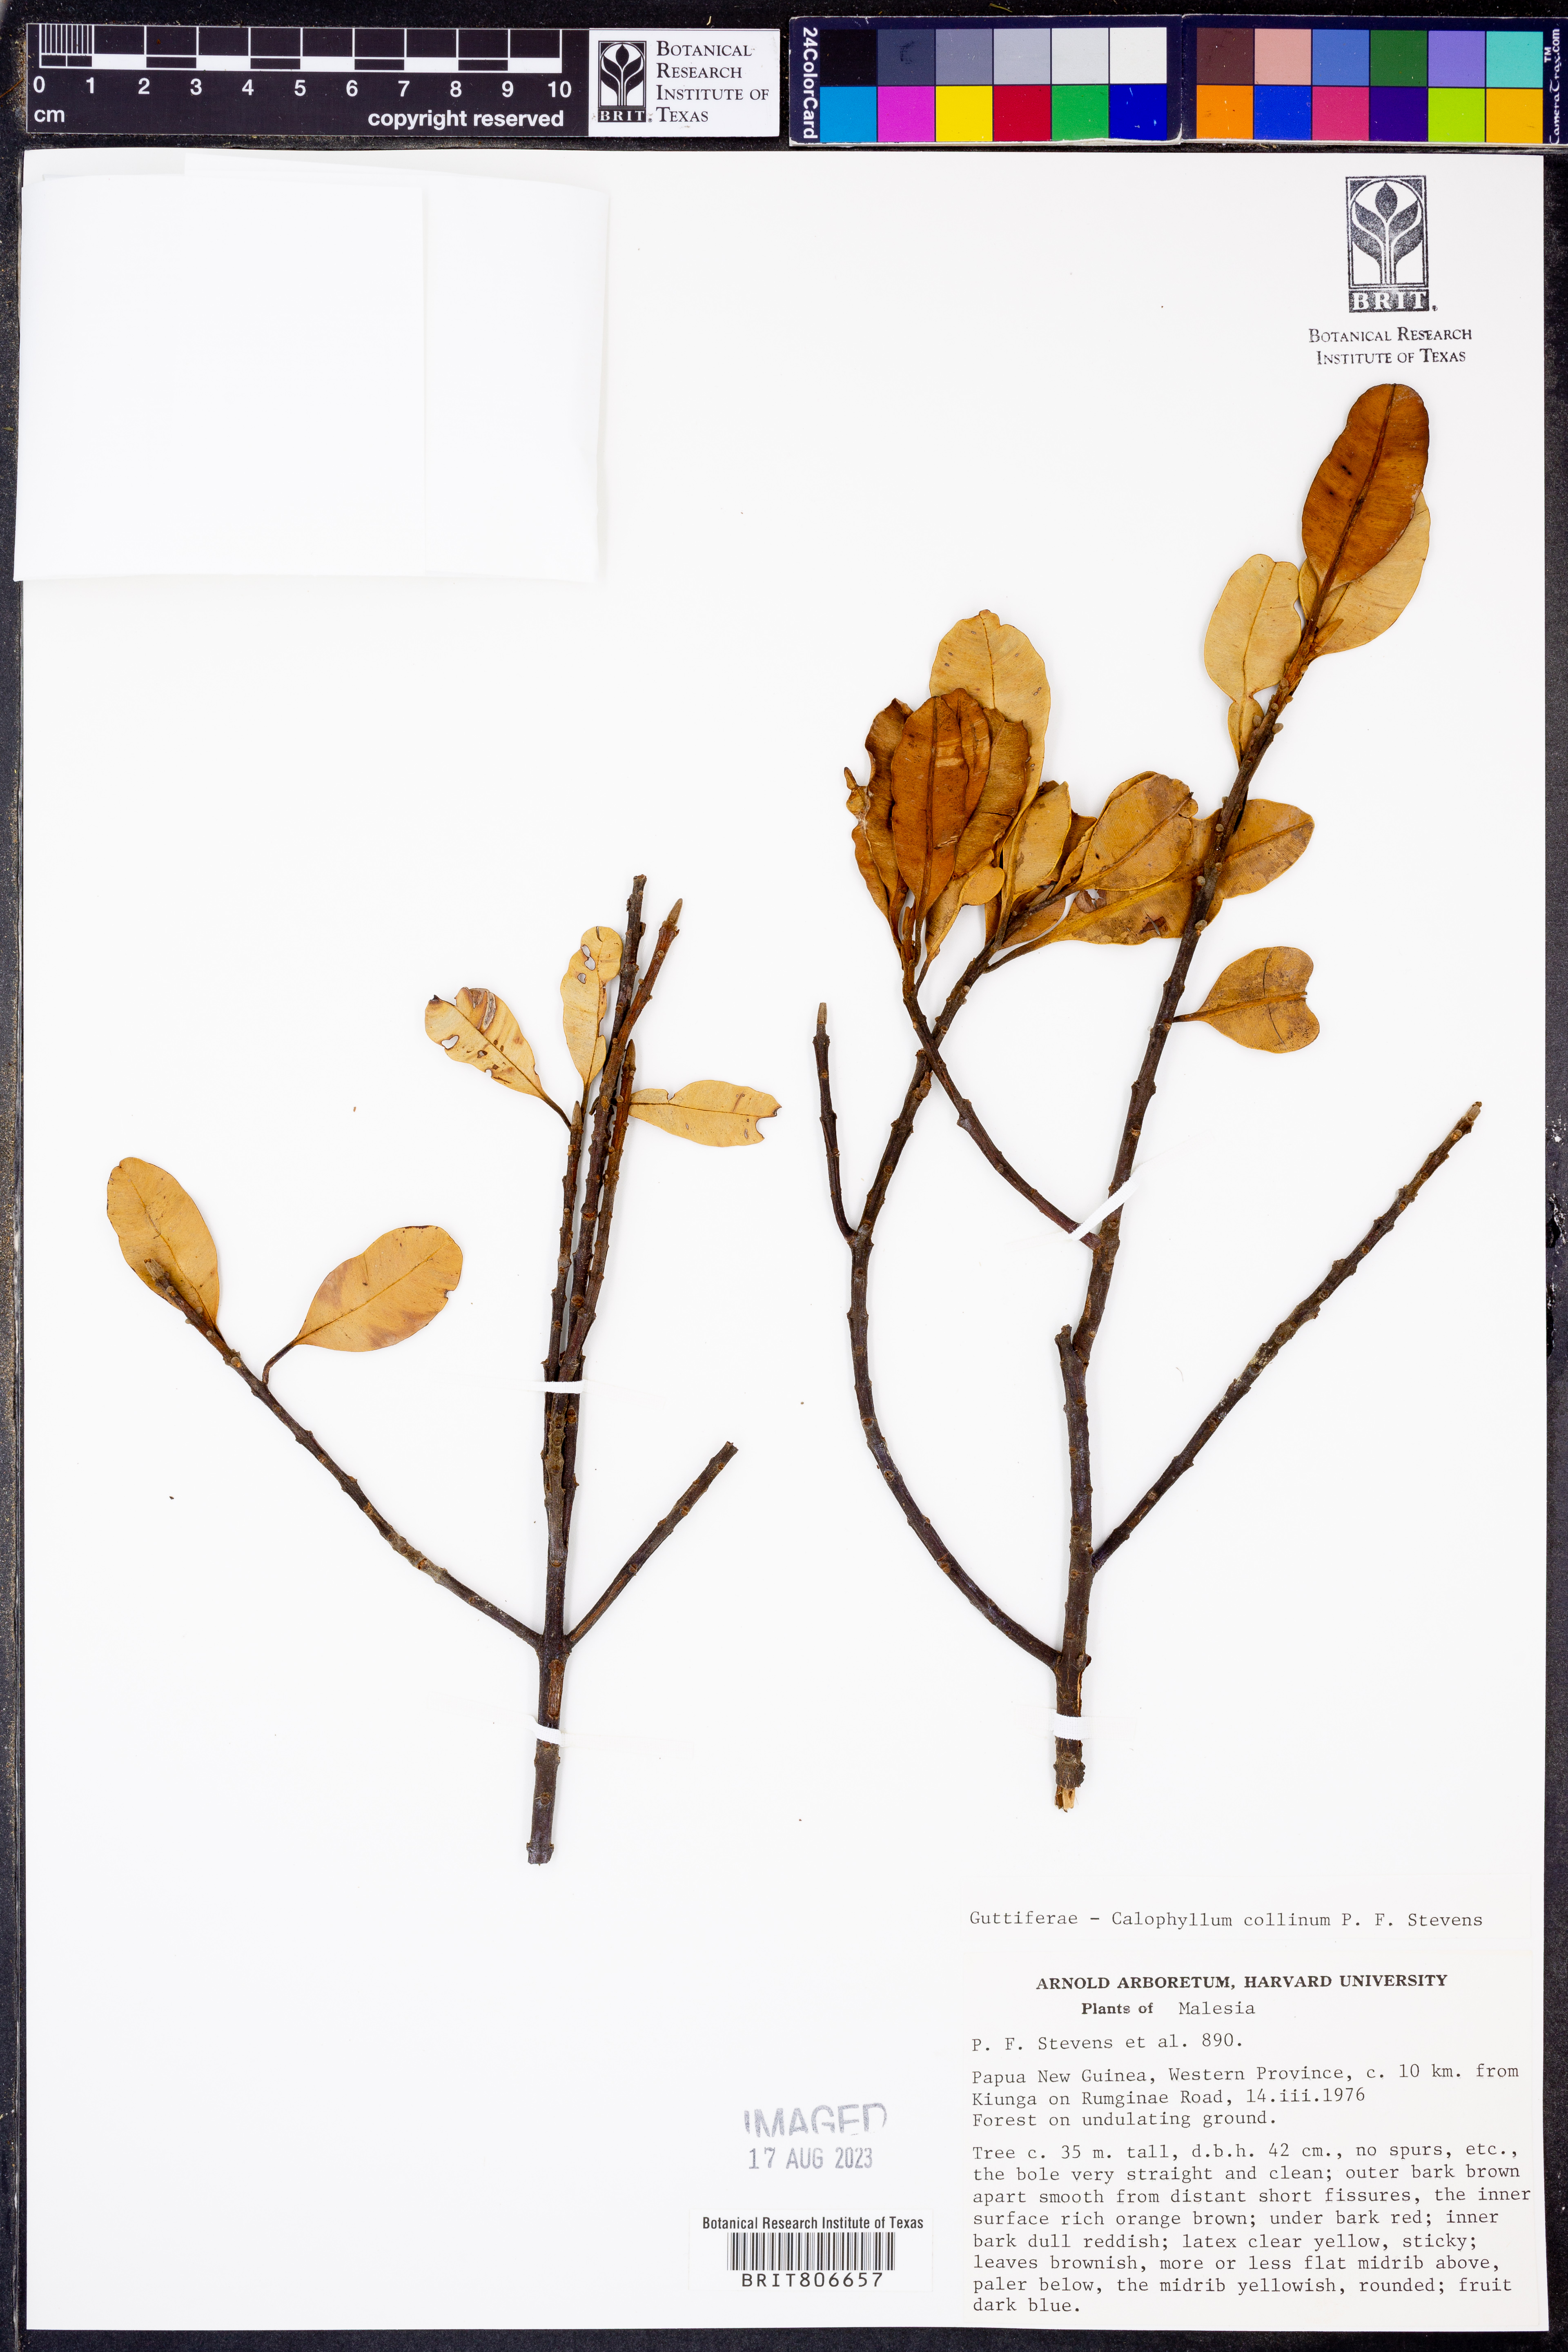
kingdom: Plantae
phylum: Tracheophyta
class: Magnoliopsida
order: Malpighiales
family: Calophyllaceae
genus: Calophyllum
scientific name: Calophyllum collinum
